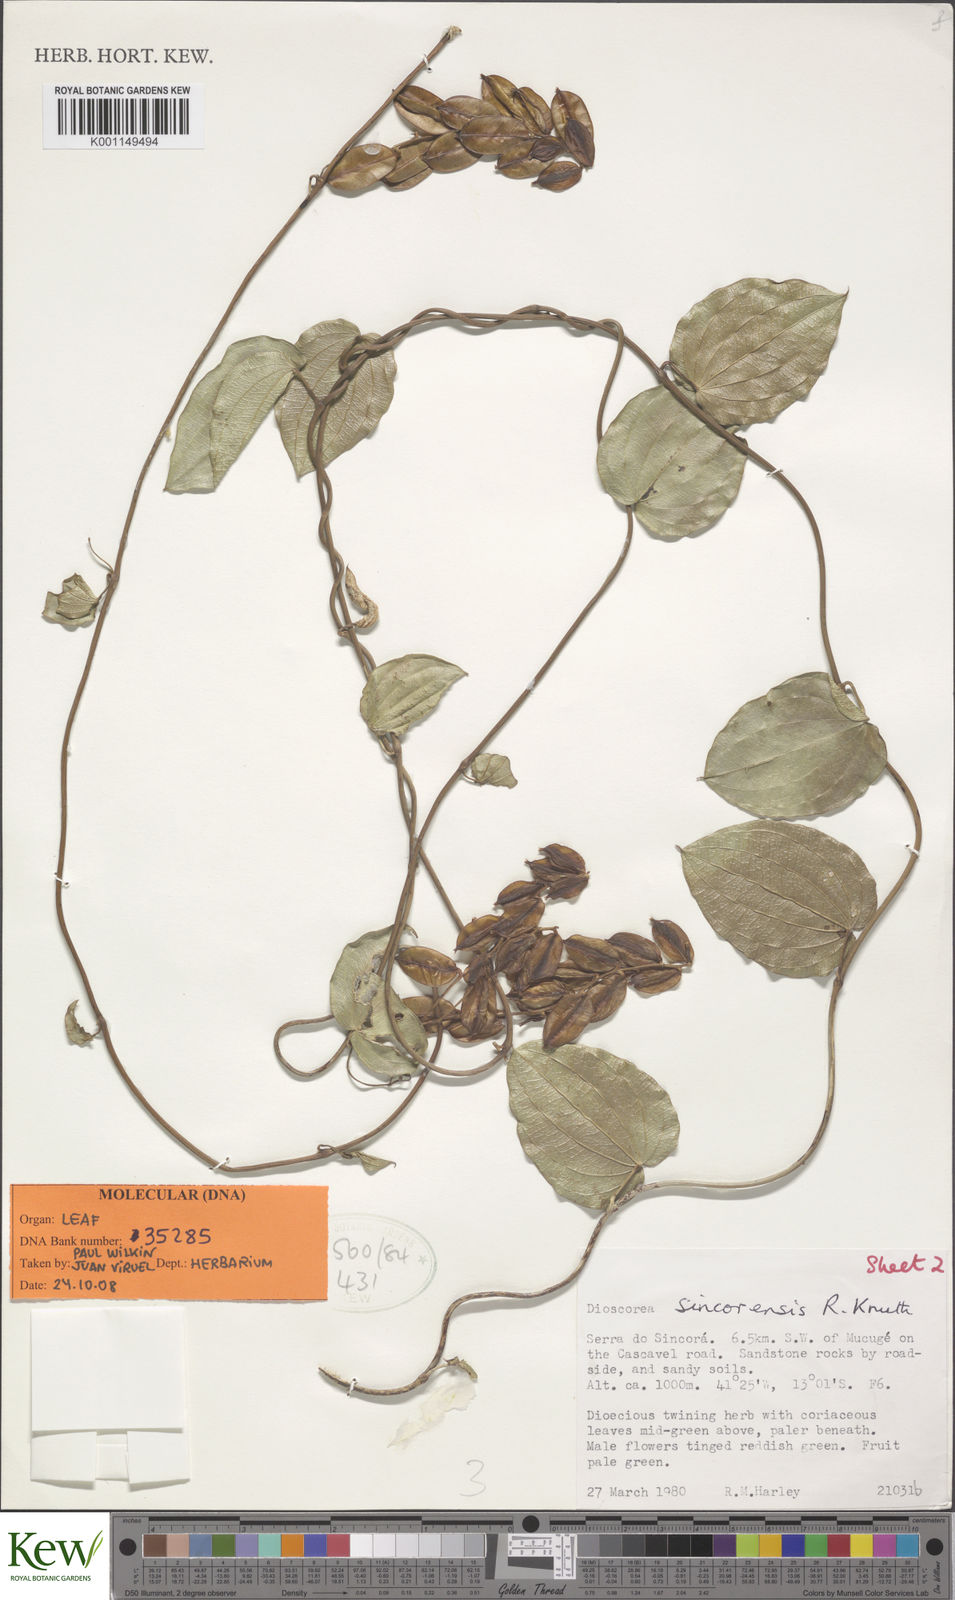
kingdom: Plantae
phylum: Tracheophyta
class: Liliopsida
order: Dioscoreales
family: Dioscoreaceae
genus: Dioscorea
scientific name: Dioscorea sincorensis
